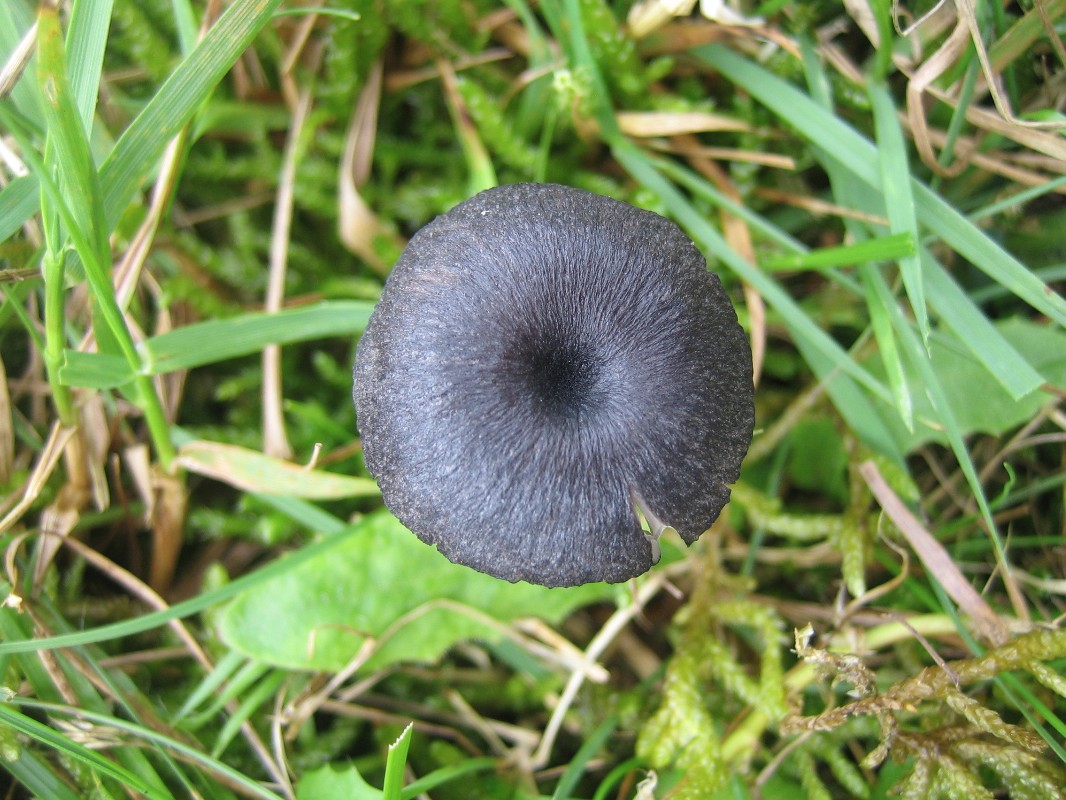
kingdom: Fungi
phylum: Basidiomycota
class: Agaricomycetes
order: Agaricales
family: Entolomataceae
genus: Entoloma
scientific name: Entoloma
